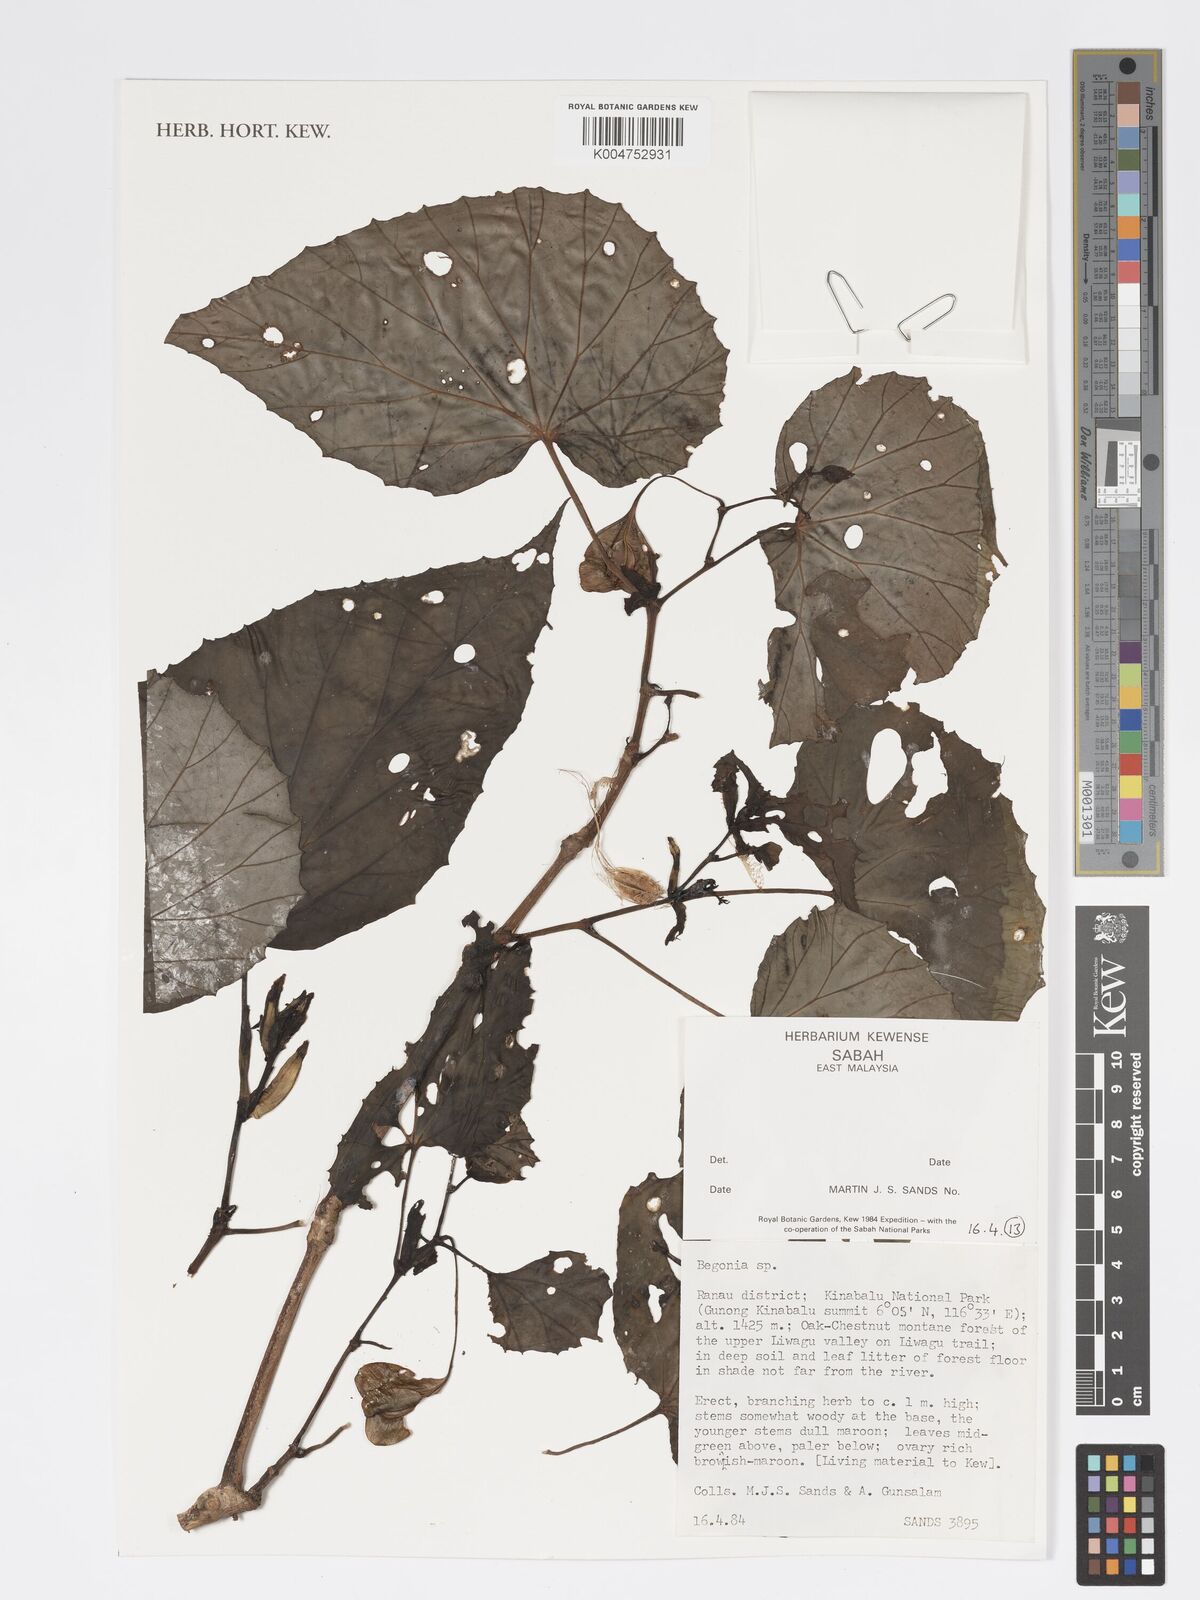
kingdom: Plantae
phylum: Tracheophyta
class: Magnoliopsida
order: Cucurbitales
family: Begoniaceae
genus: Begonia
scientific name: Begonia
